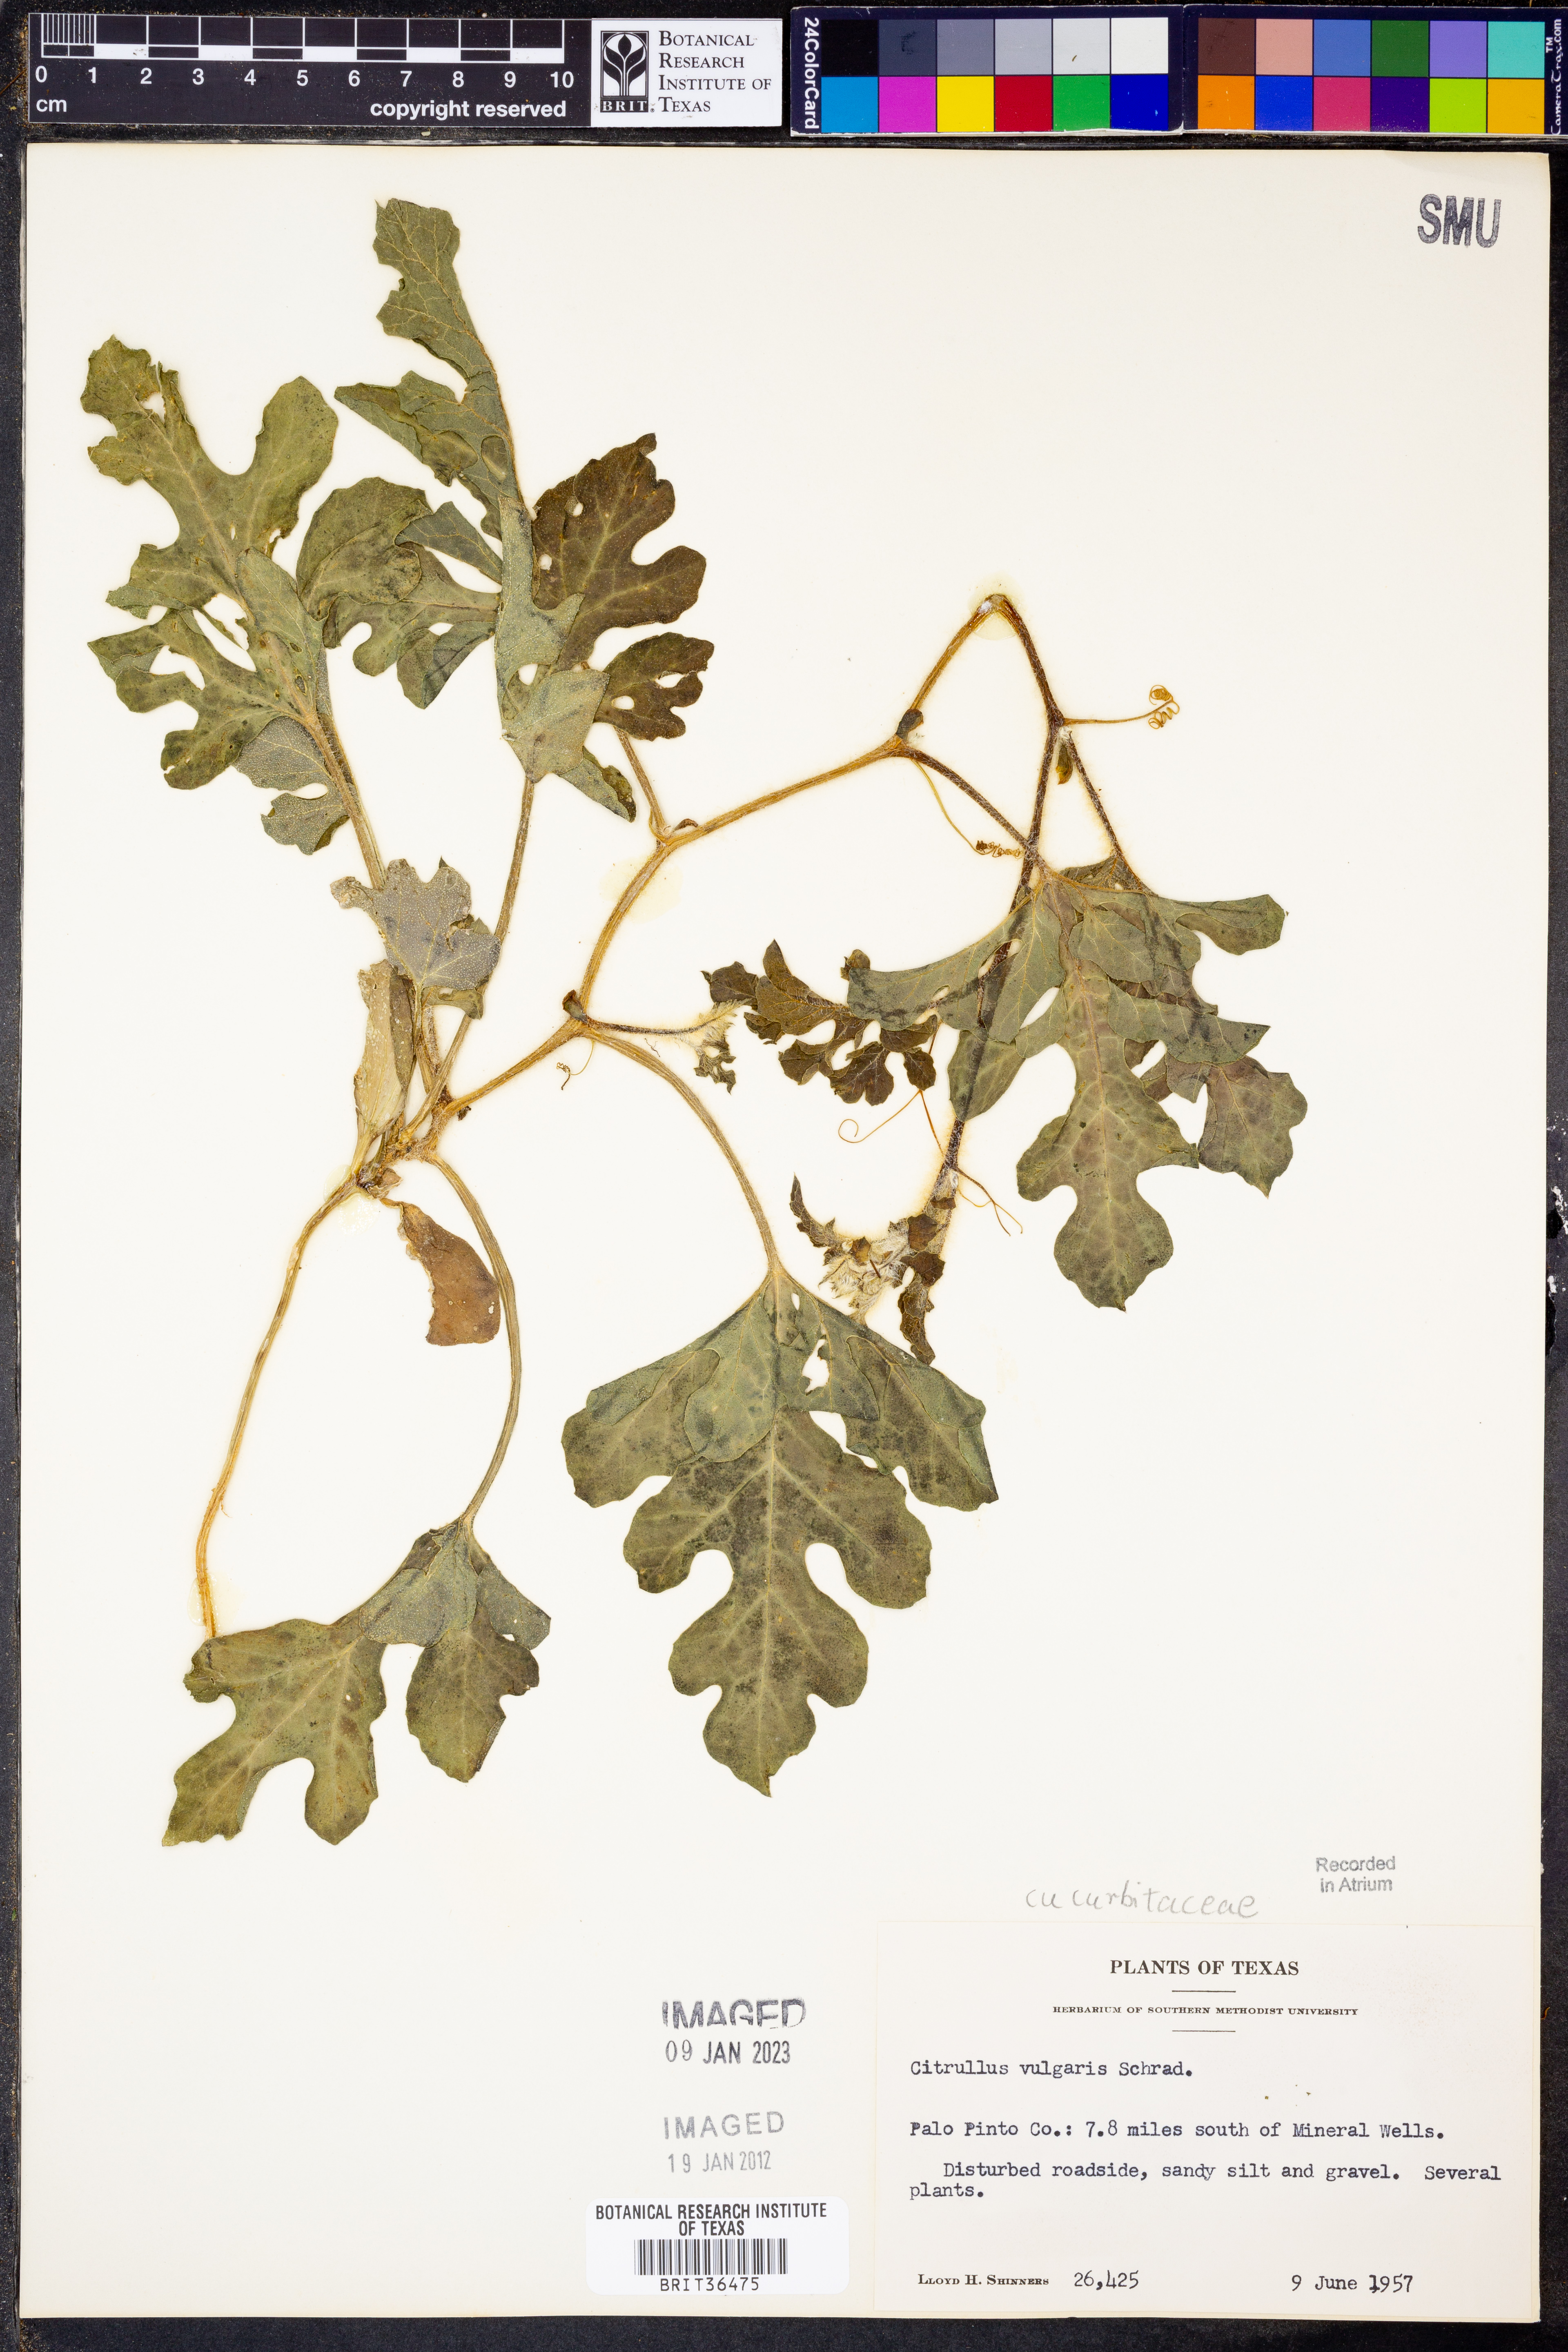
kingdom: Plantae
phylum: Tracheophyta
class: Magnoliopsida
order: Cucurbitales
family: Cucurbitaceae
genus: Citrullus
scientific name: Citrullus lanatus
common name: Watermelon
